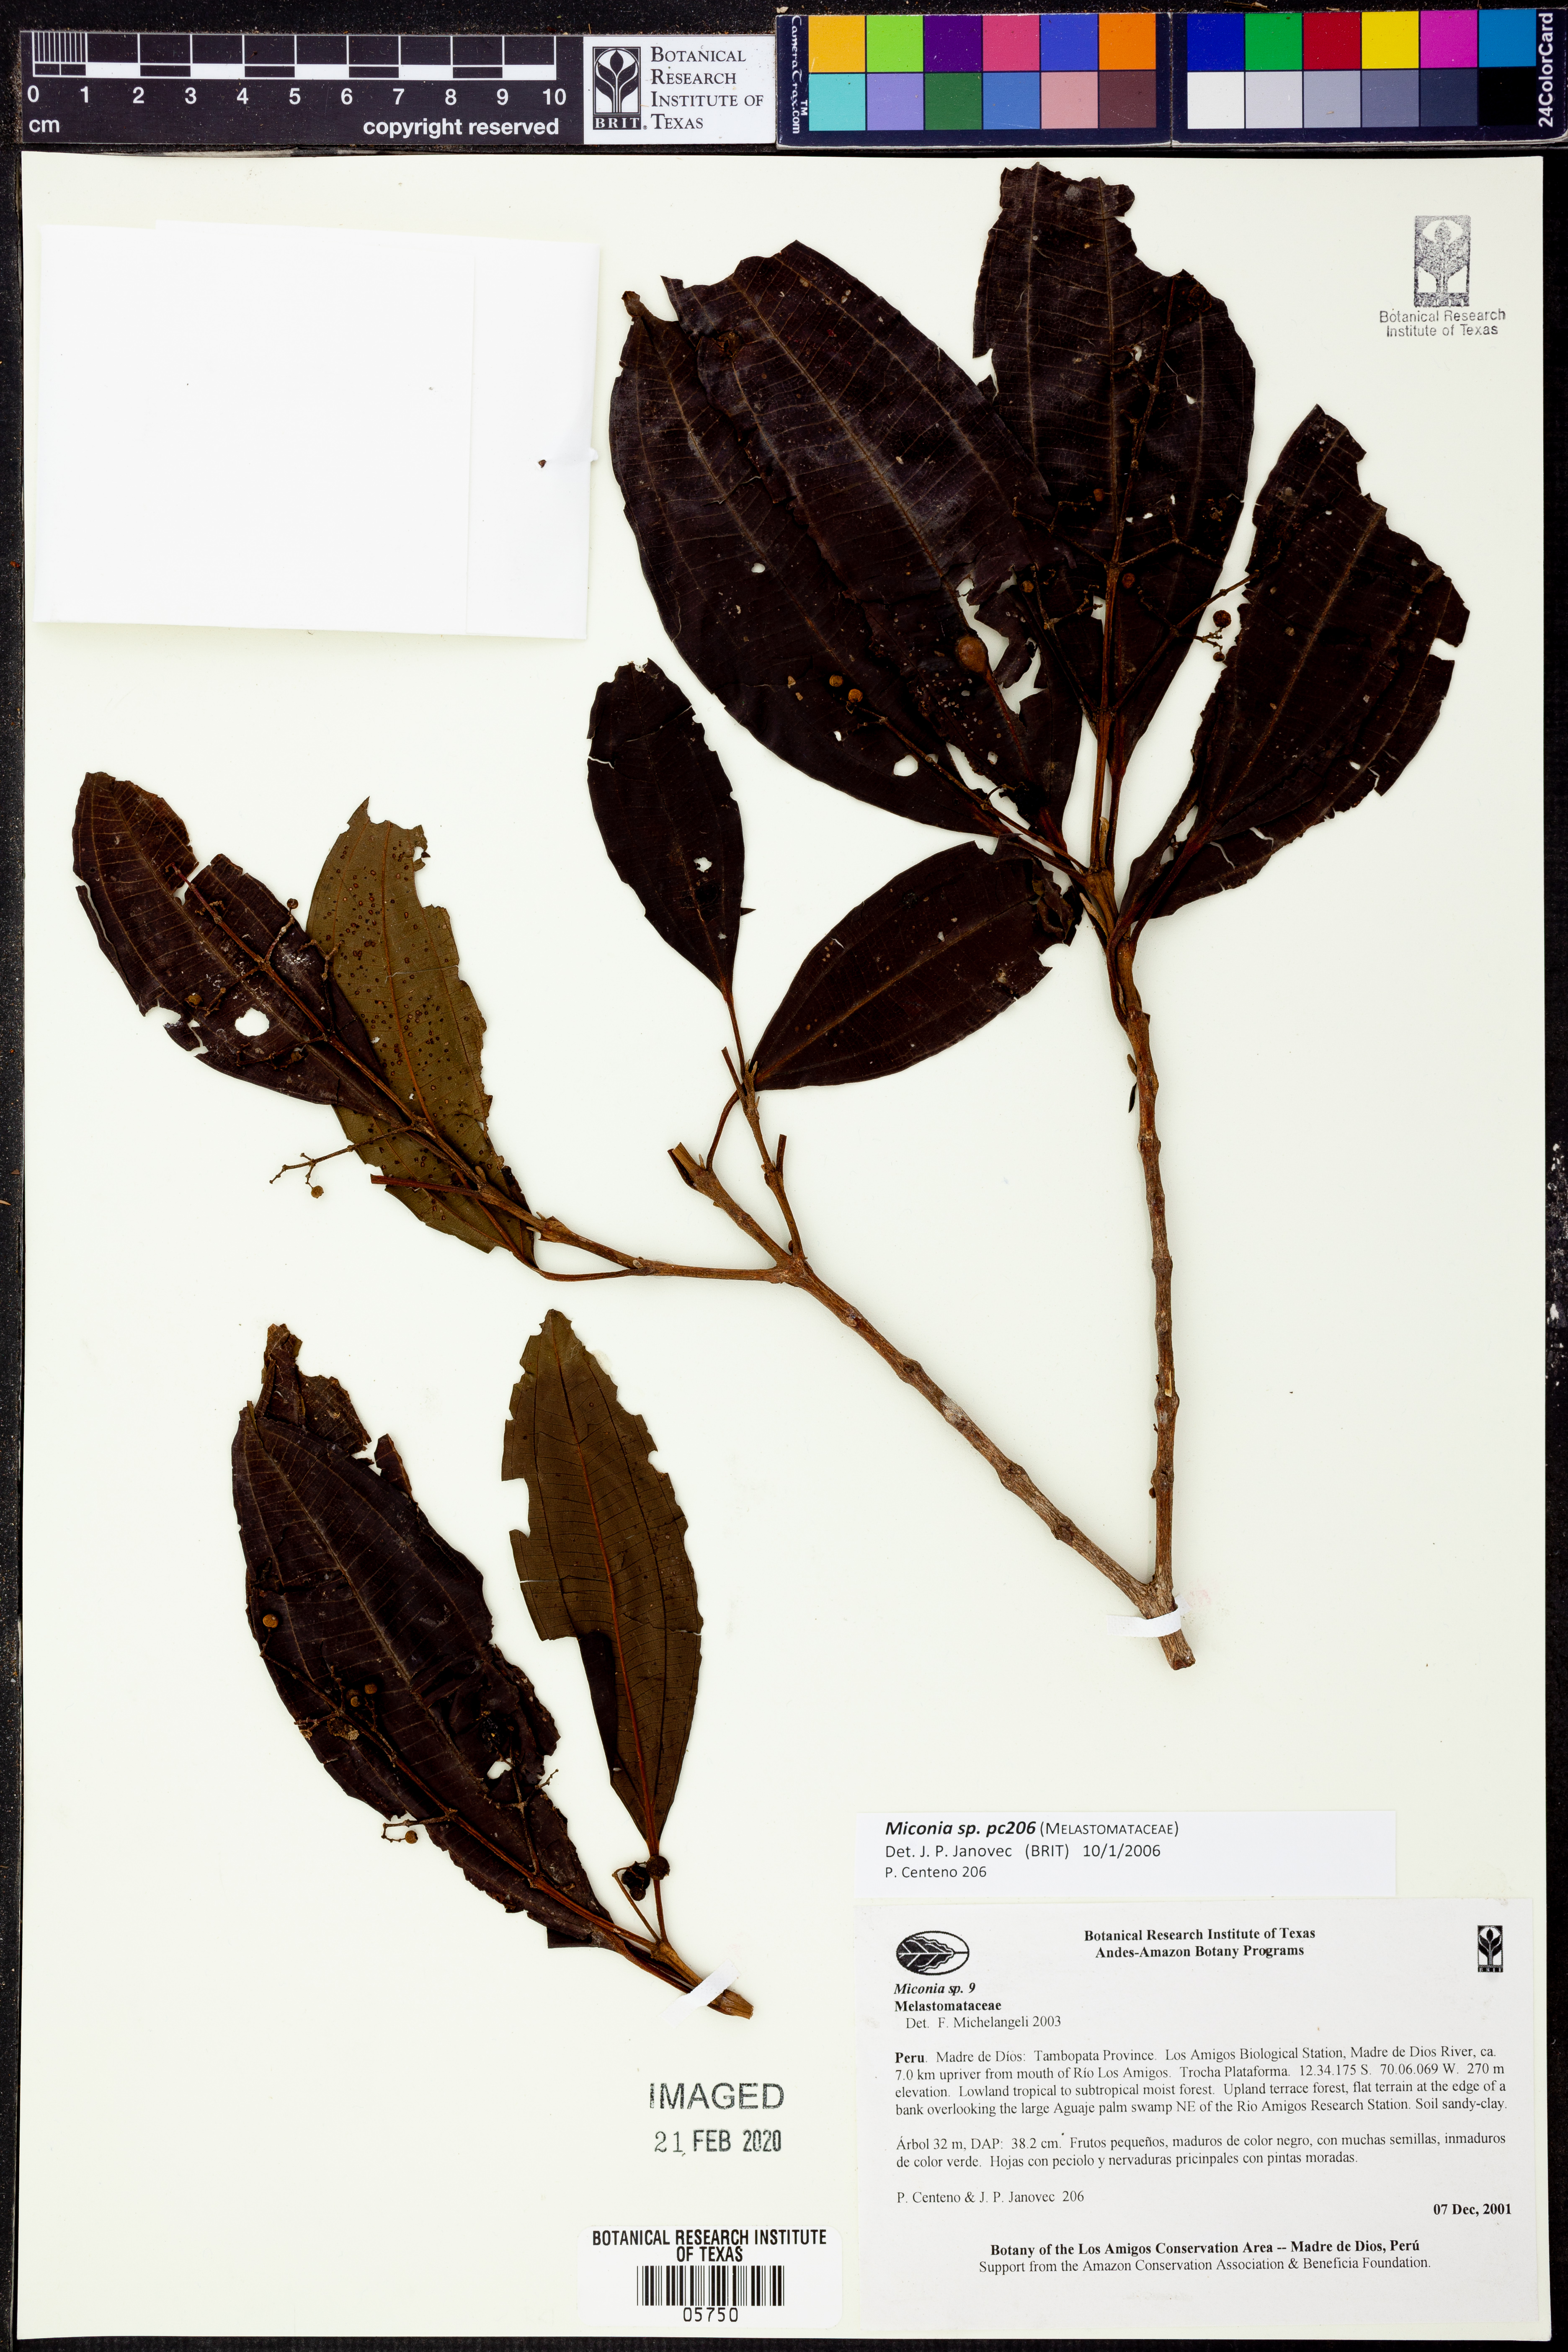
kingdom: Plantae
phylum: Tracheophyta
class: Magnoliopsida
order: Myrtales
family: Melastomataceae
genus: Miconia
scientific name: Miconia
